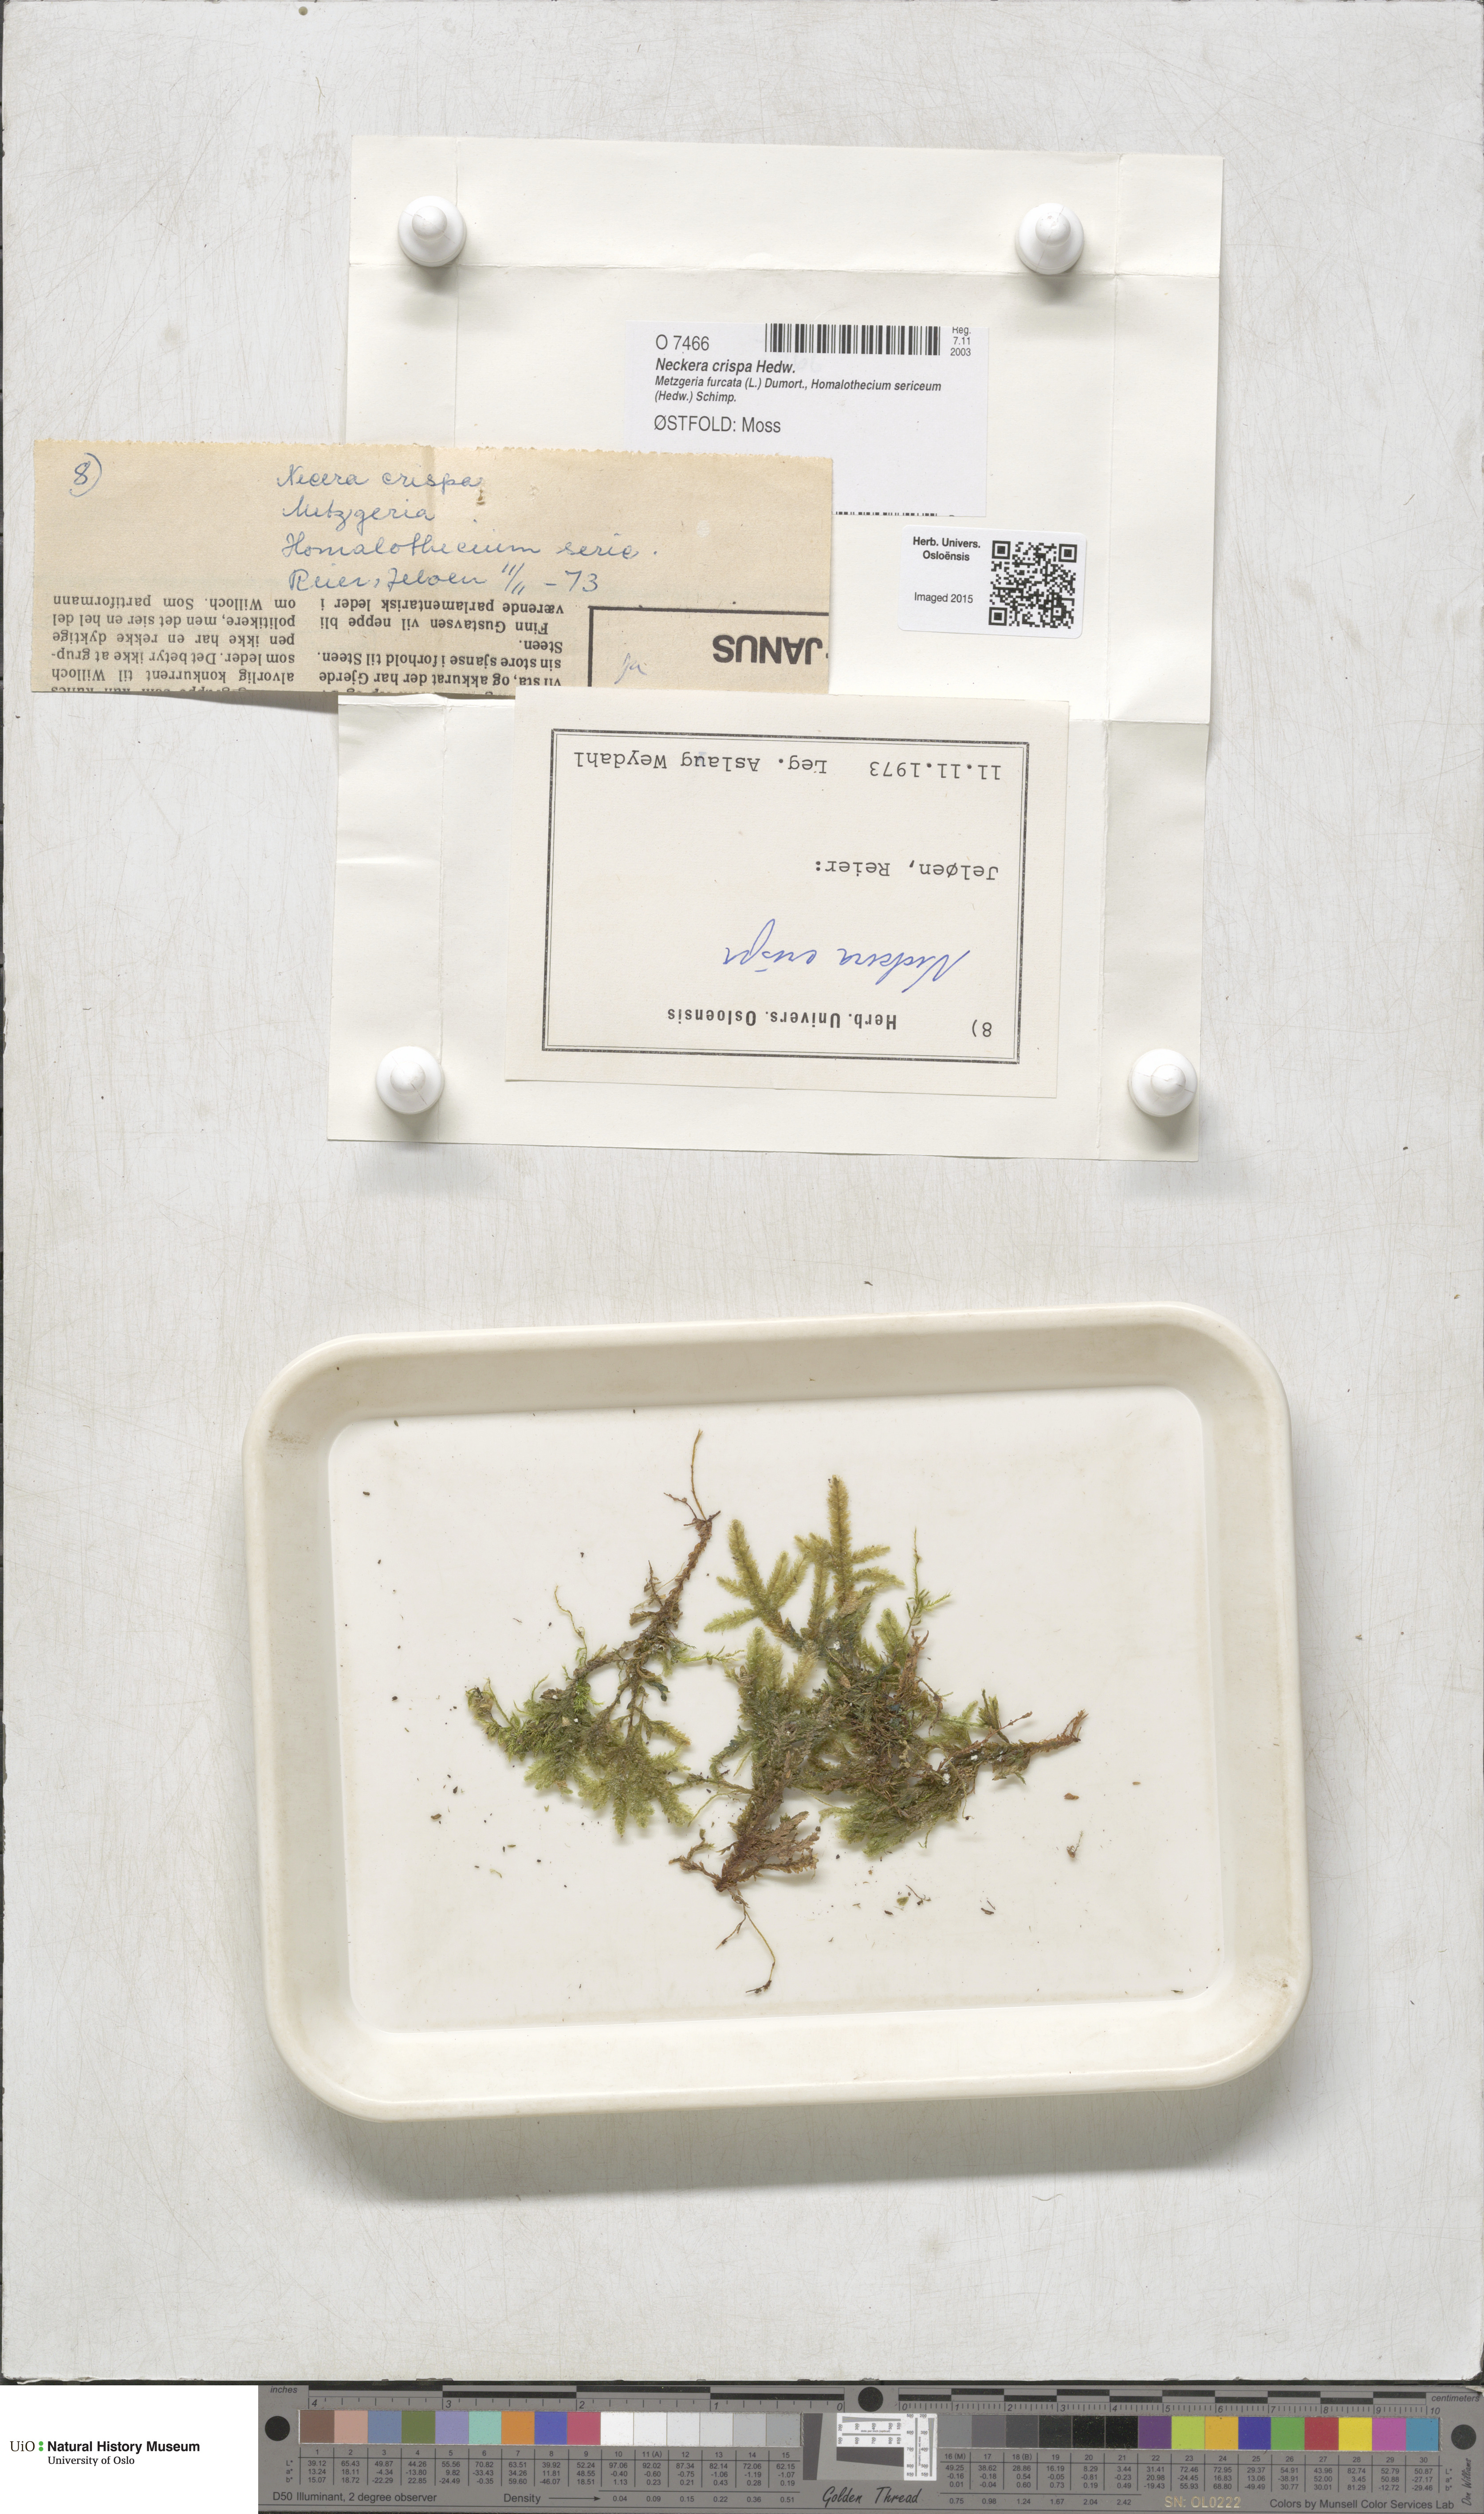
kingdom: Plantae
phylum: Bryophyta
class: Bryopsida
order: Hypnales
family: Neckeraceae
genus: Exsertotheca
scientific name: Exsertotheca crispa
